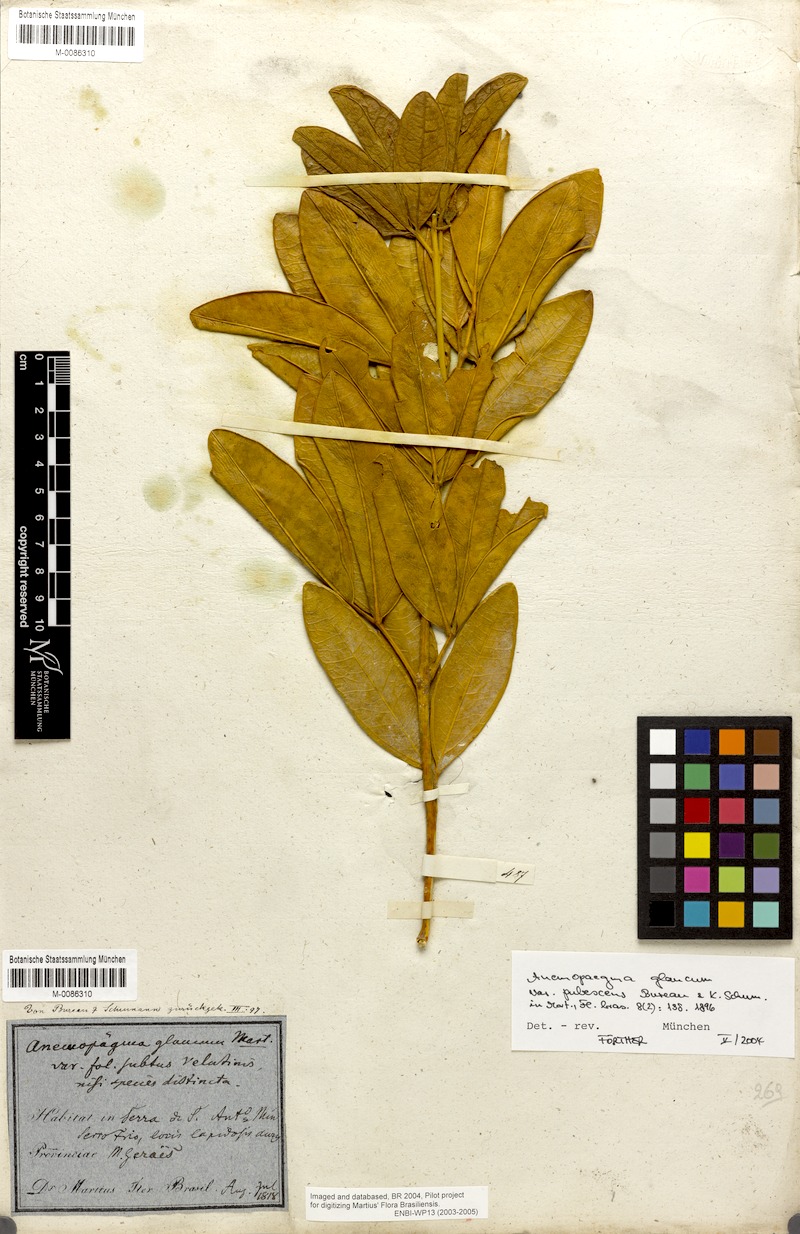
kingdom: Plantae
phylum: Tracheophyta
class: Magnoliopsida
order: Lamiales
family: Bignoniaceae
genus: Anemopaegma
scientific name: Anemopaegma glaucum
